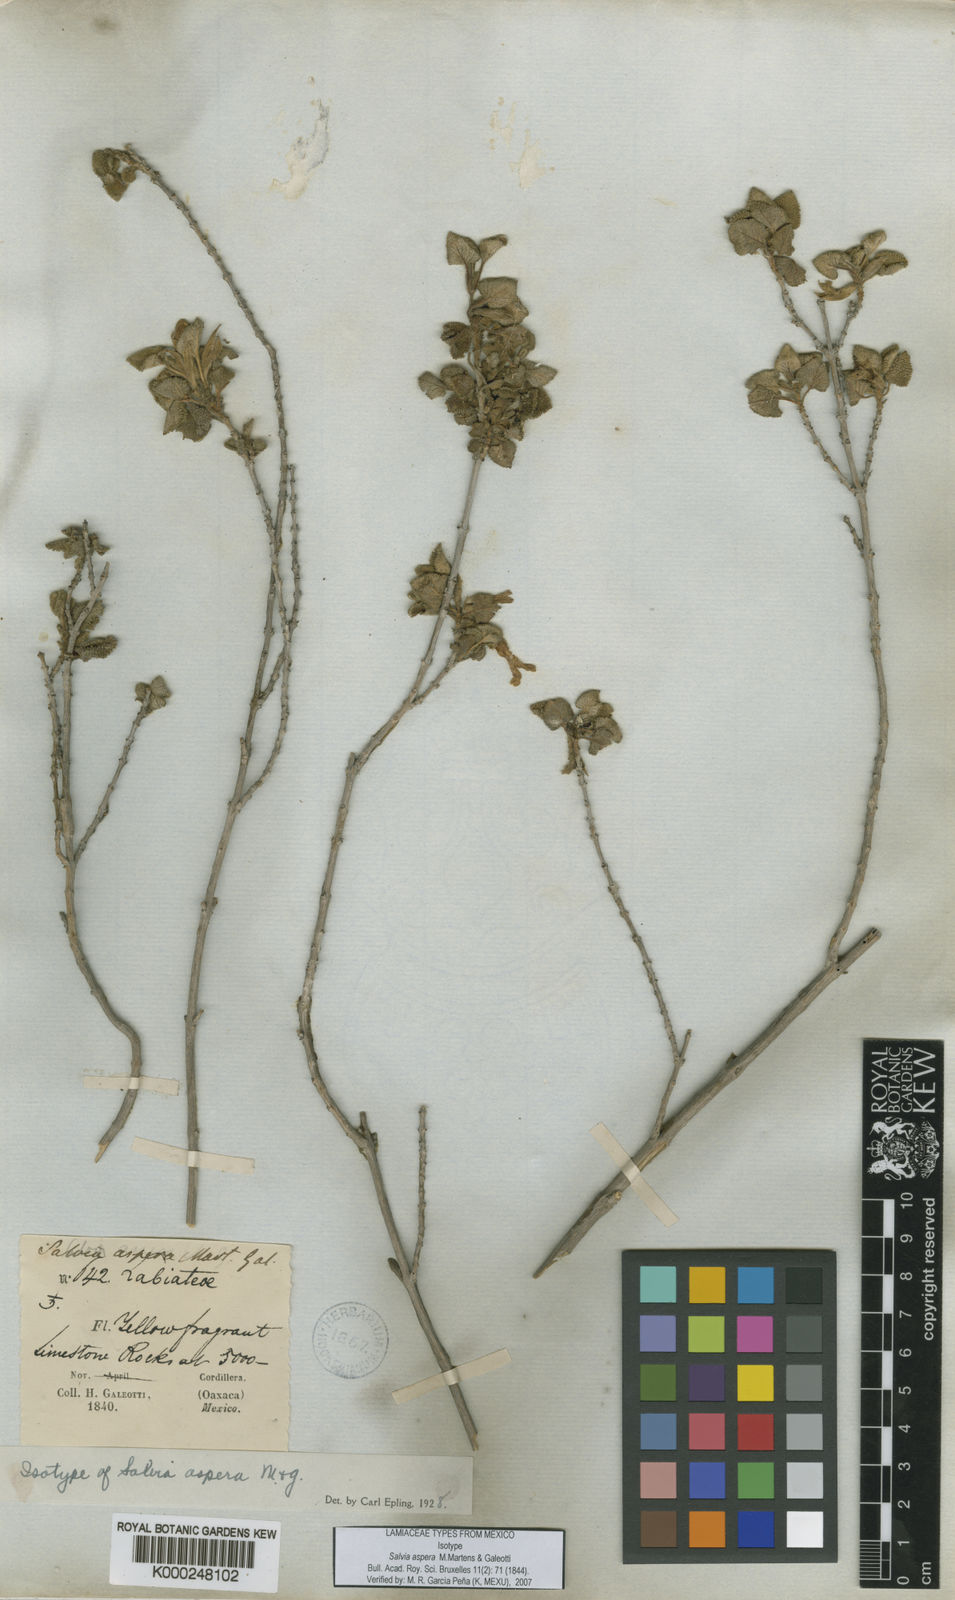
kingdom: Plantae
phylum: Tracheophyta
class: Magnoliopsida
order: Lamiales
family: Lamiaceae
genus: Salvia
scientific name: Salvia aspera
